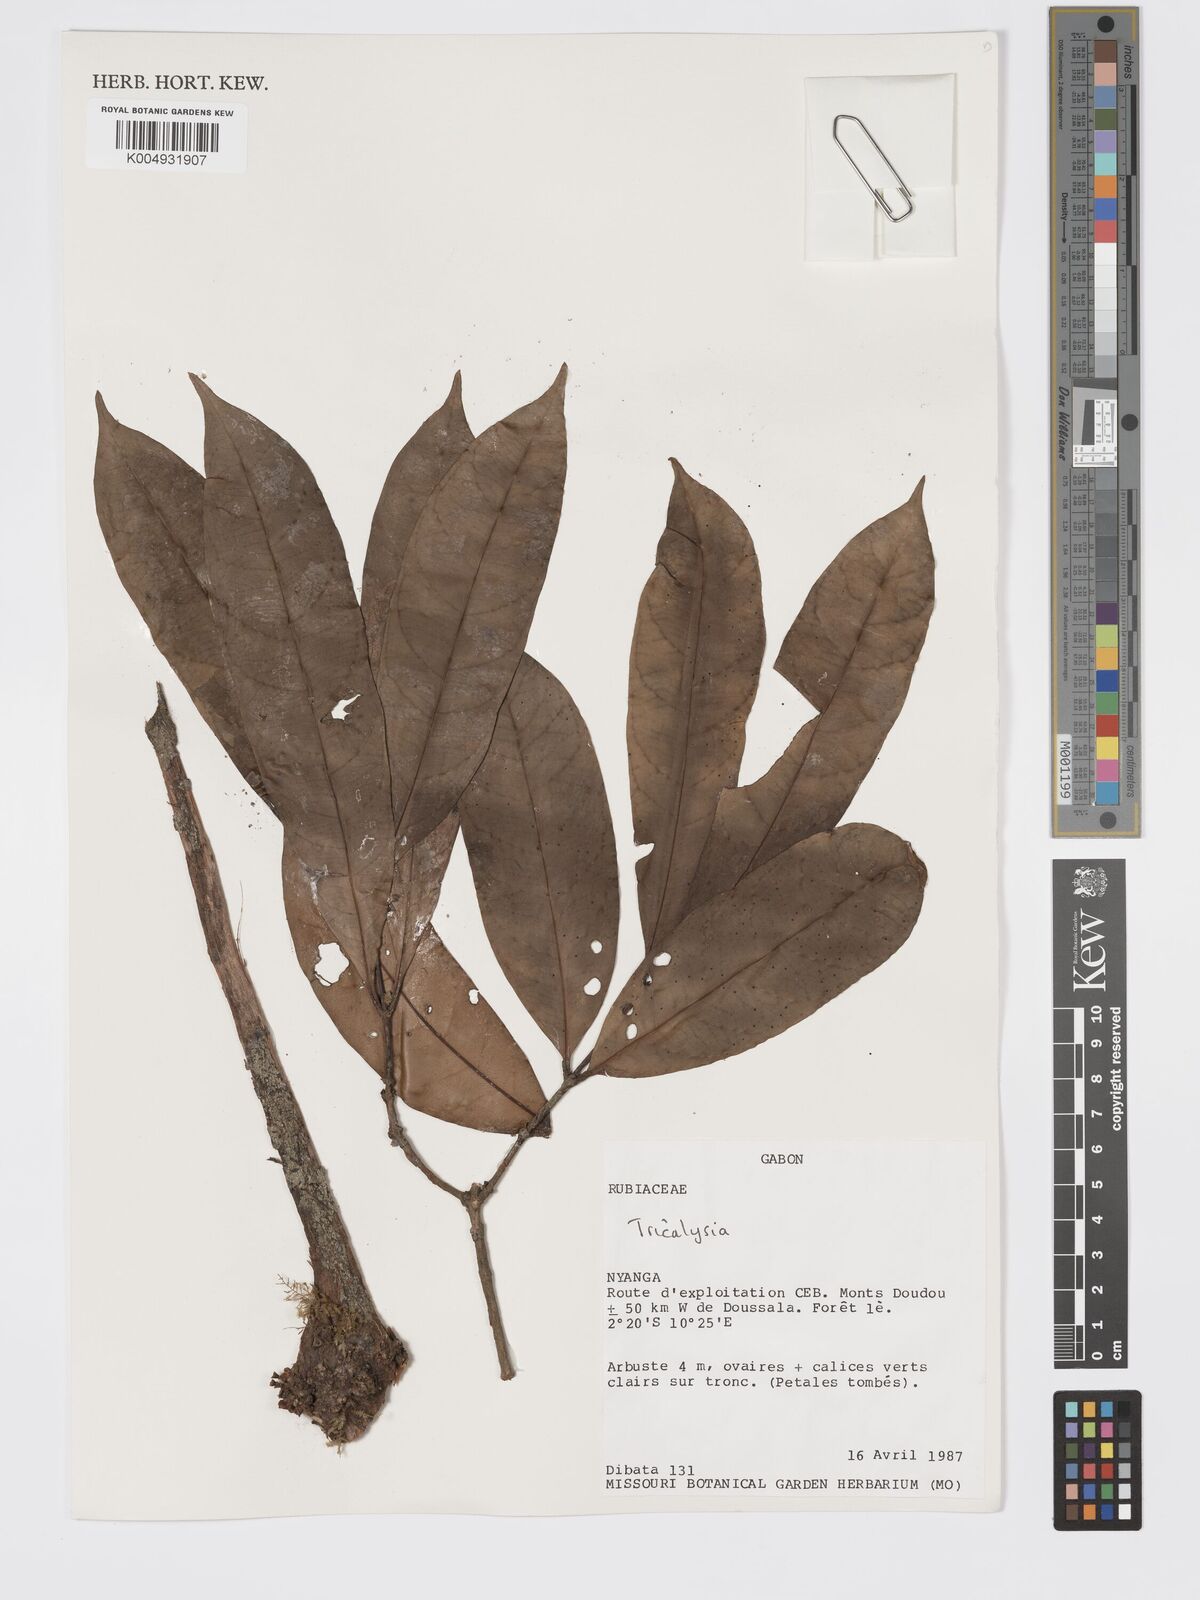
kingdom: Plantae
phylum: Tracheophyta
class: Magnoliopsida
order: Gentianales
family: Rubiaceae
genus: Tricalysia
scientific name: Tricalysia
